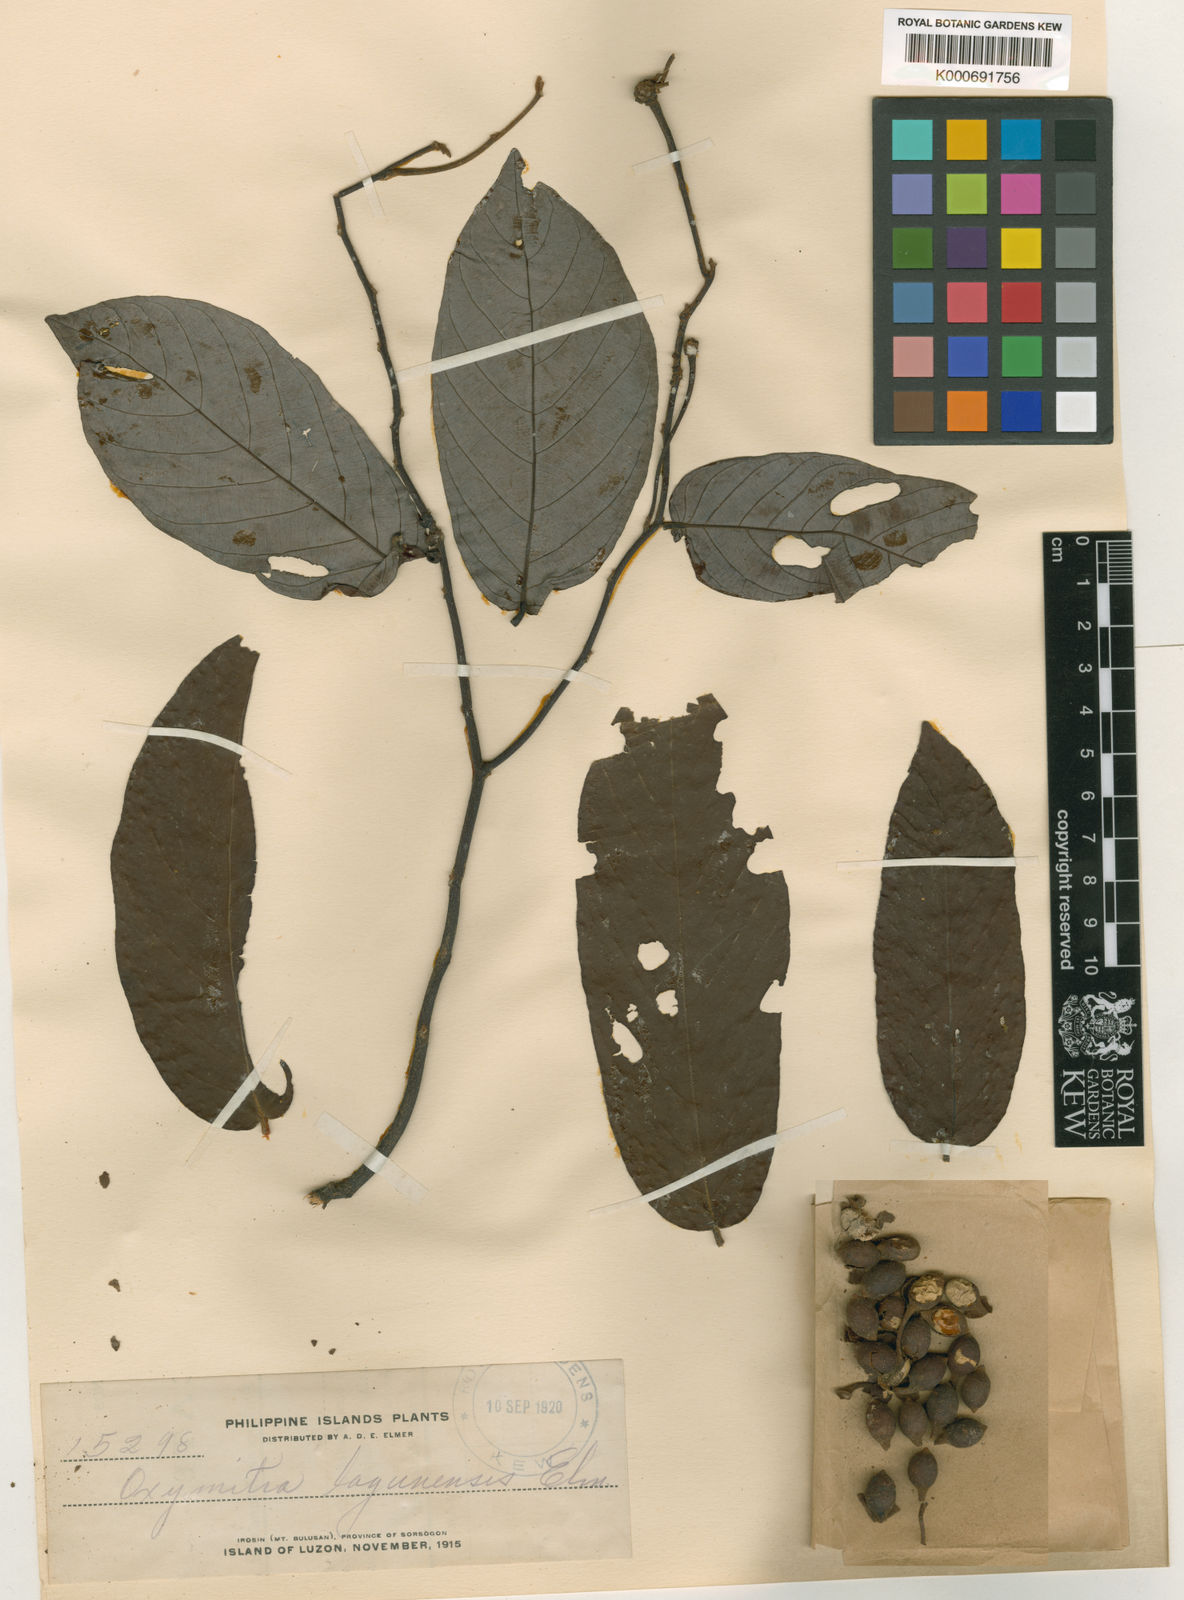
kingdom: Plantae
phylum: Tracheophyta
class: Magnoliopsida
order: Magnoliales
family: Annonaceae
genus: Friesodielsia
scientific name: Friesodielsia lagunensis
